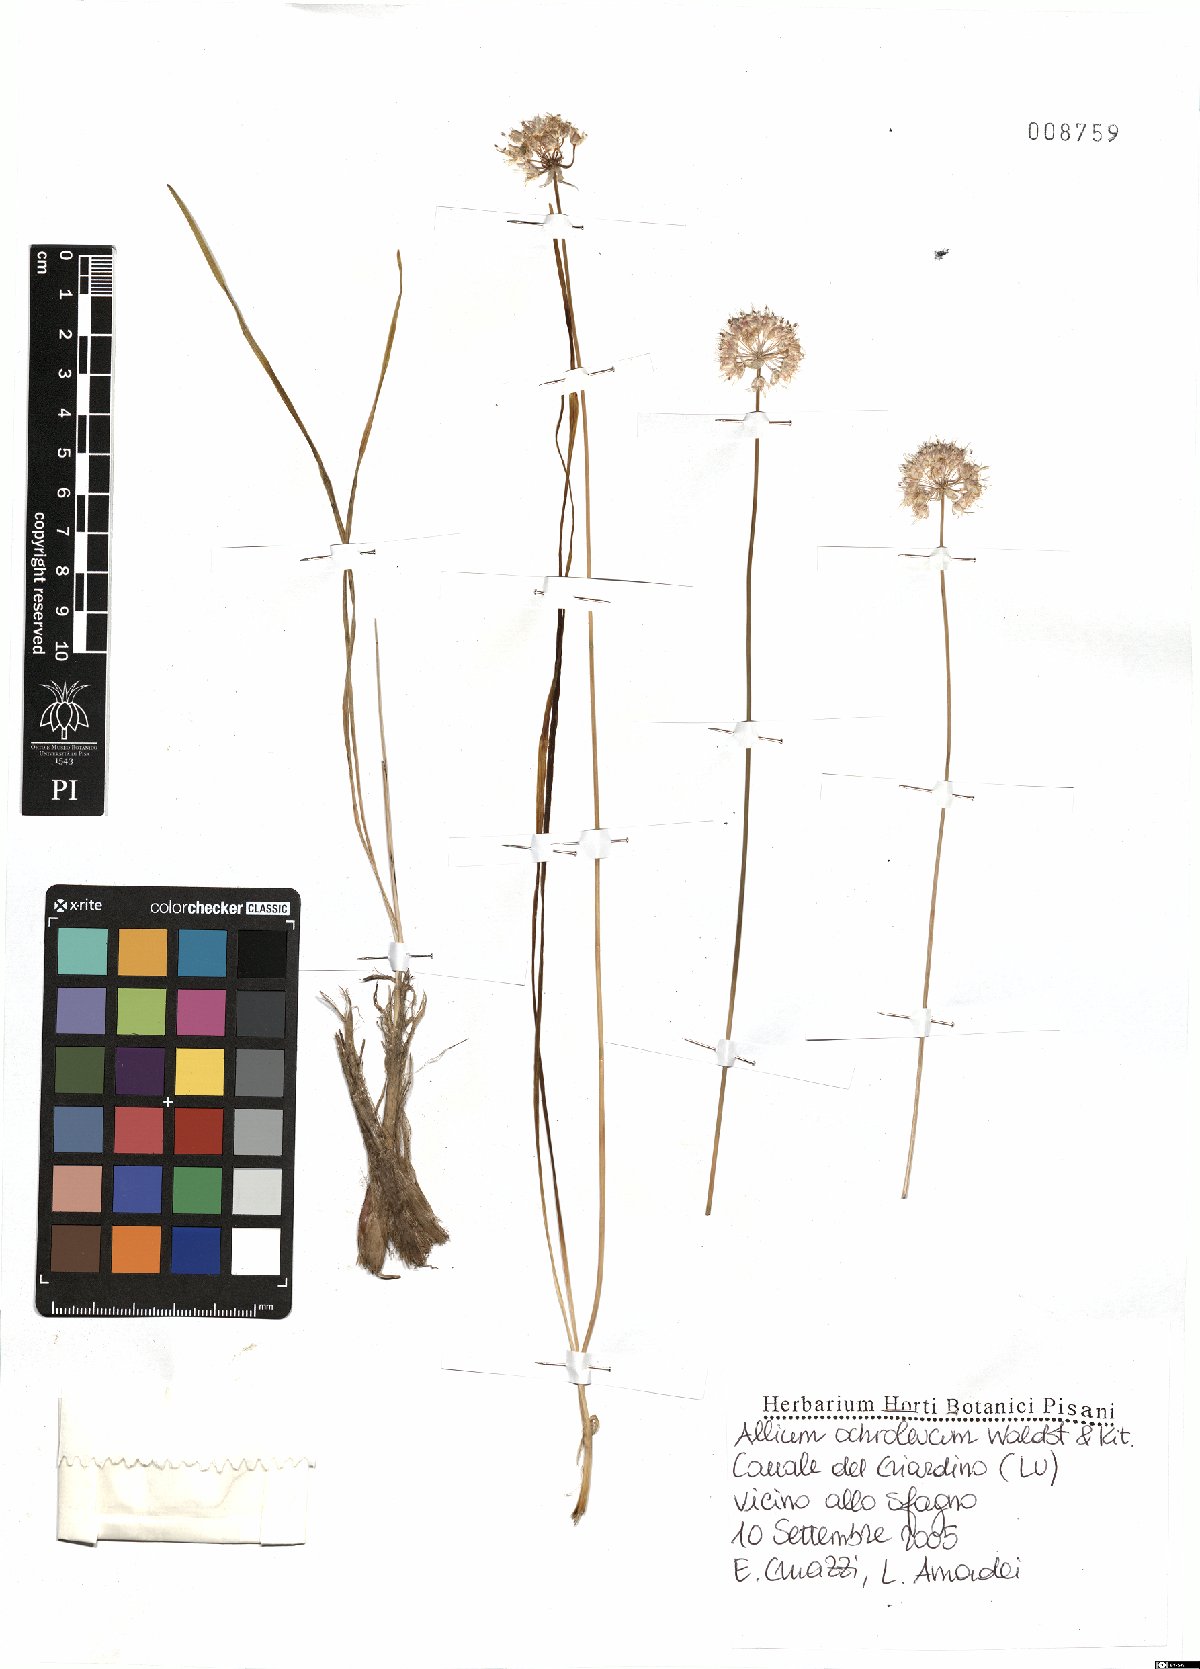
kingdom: Plantae
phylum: Tracheophyta
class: Liliopsida
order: Asparagales
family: Amaryllidaceae
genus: Allium
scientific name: Allium ericetorum
